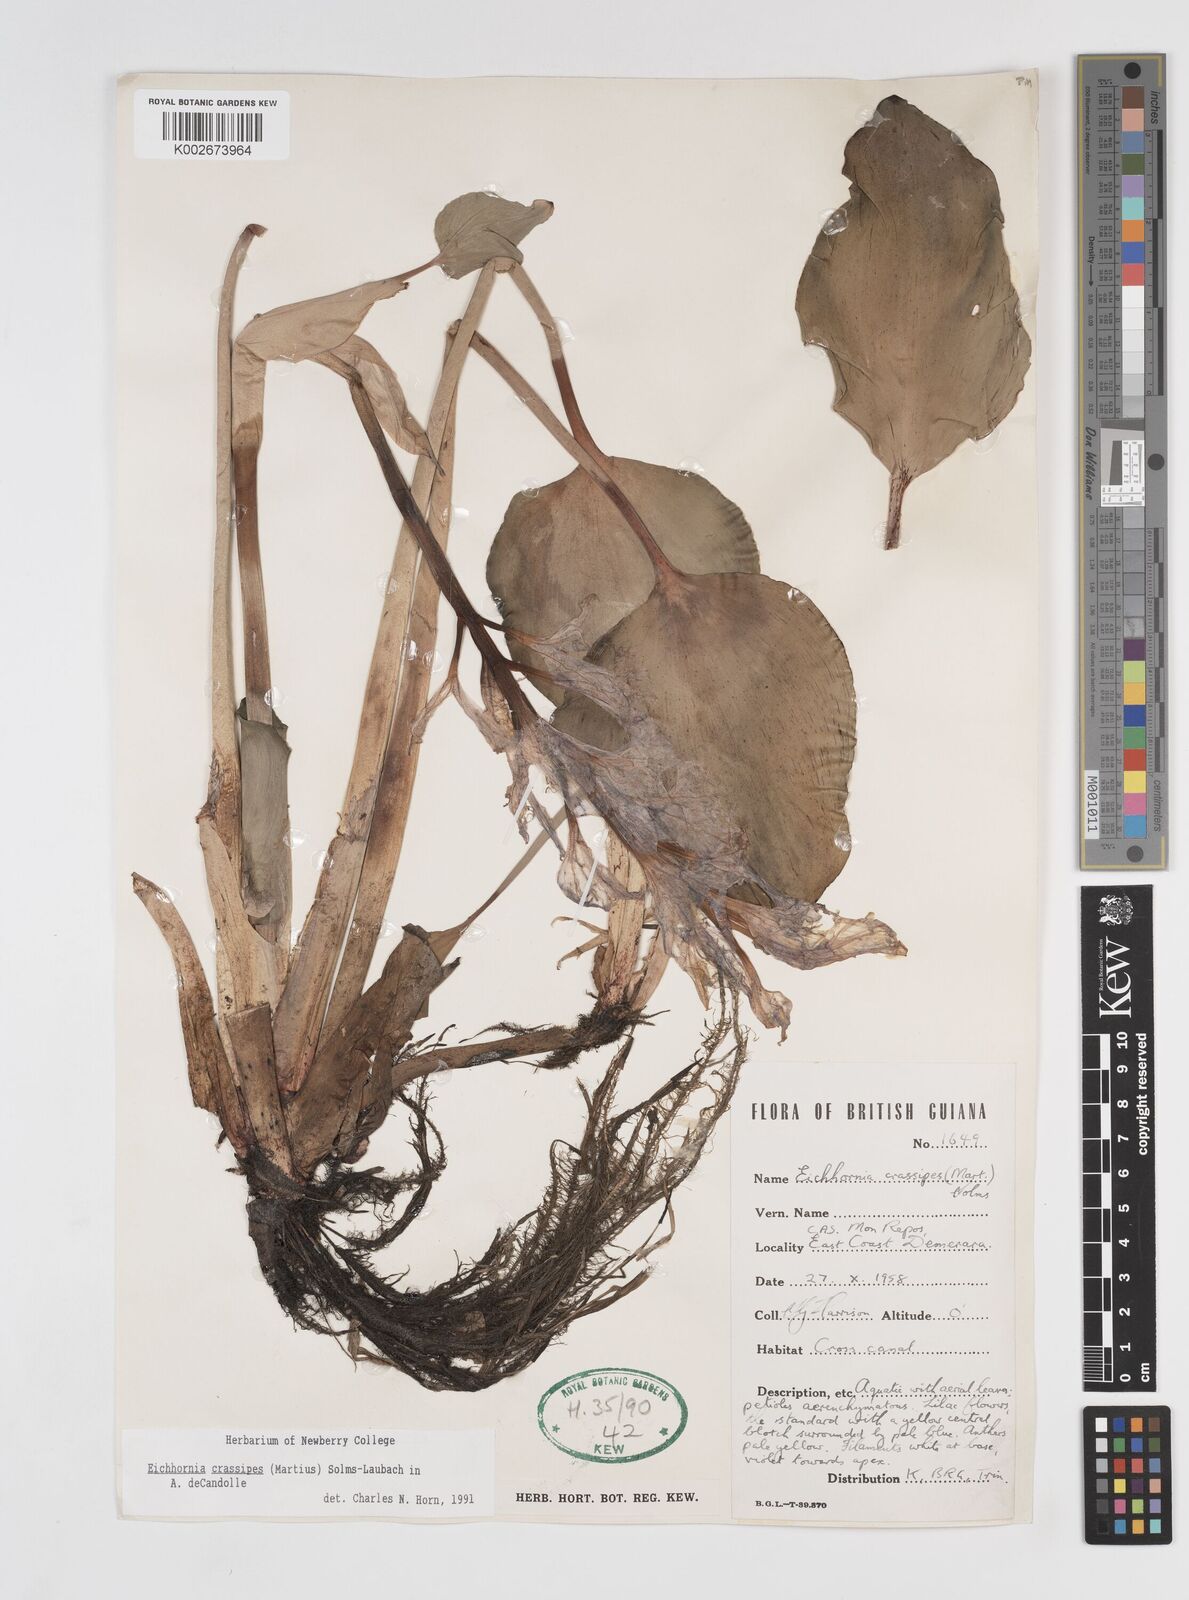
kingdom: Plantae
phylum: Tracheophyta
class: Liliopsida
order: Commelinales
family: Pontederiaceae
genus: Pontederia
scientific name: Pontederia crassipes
